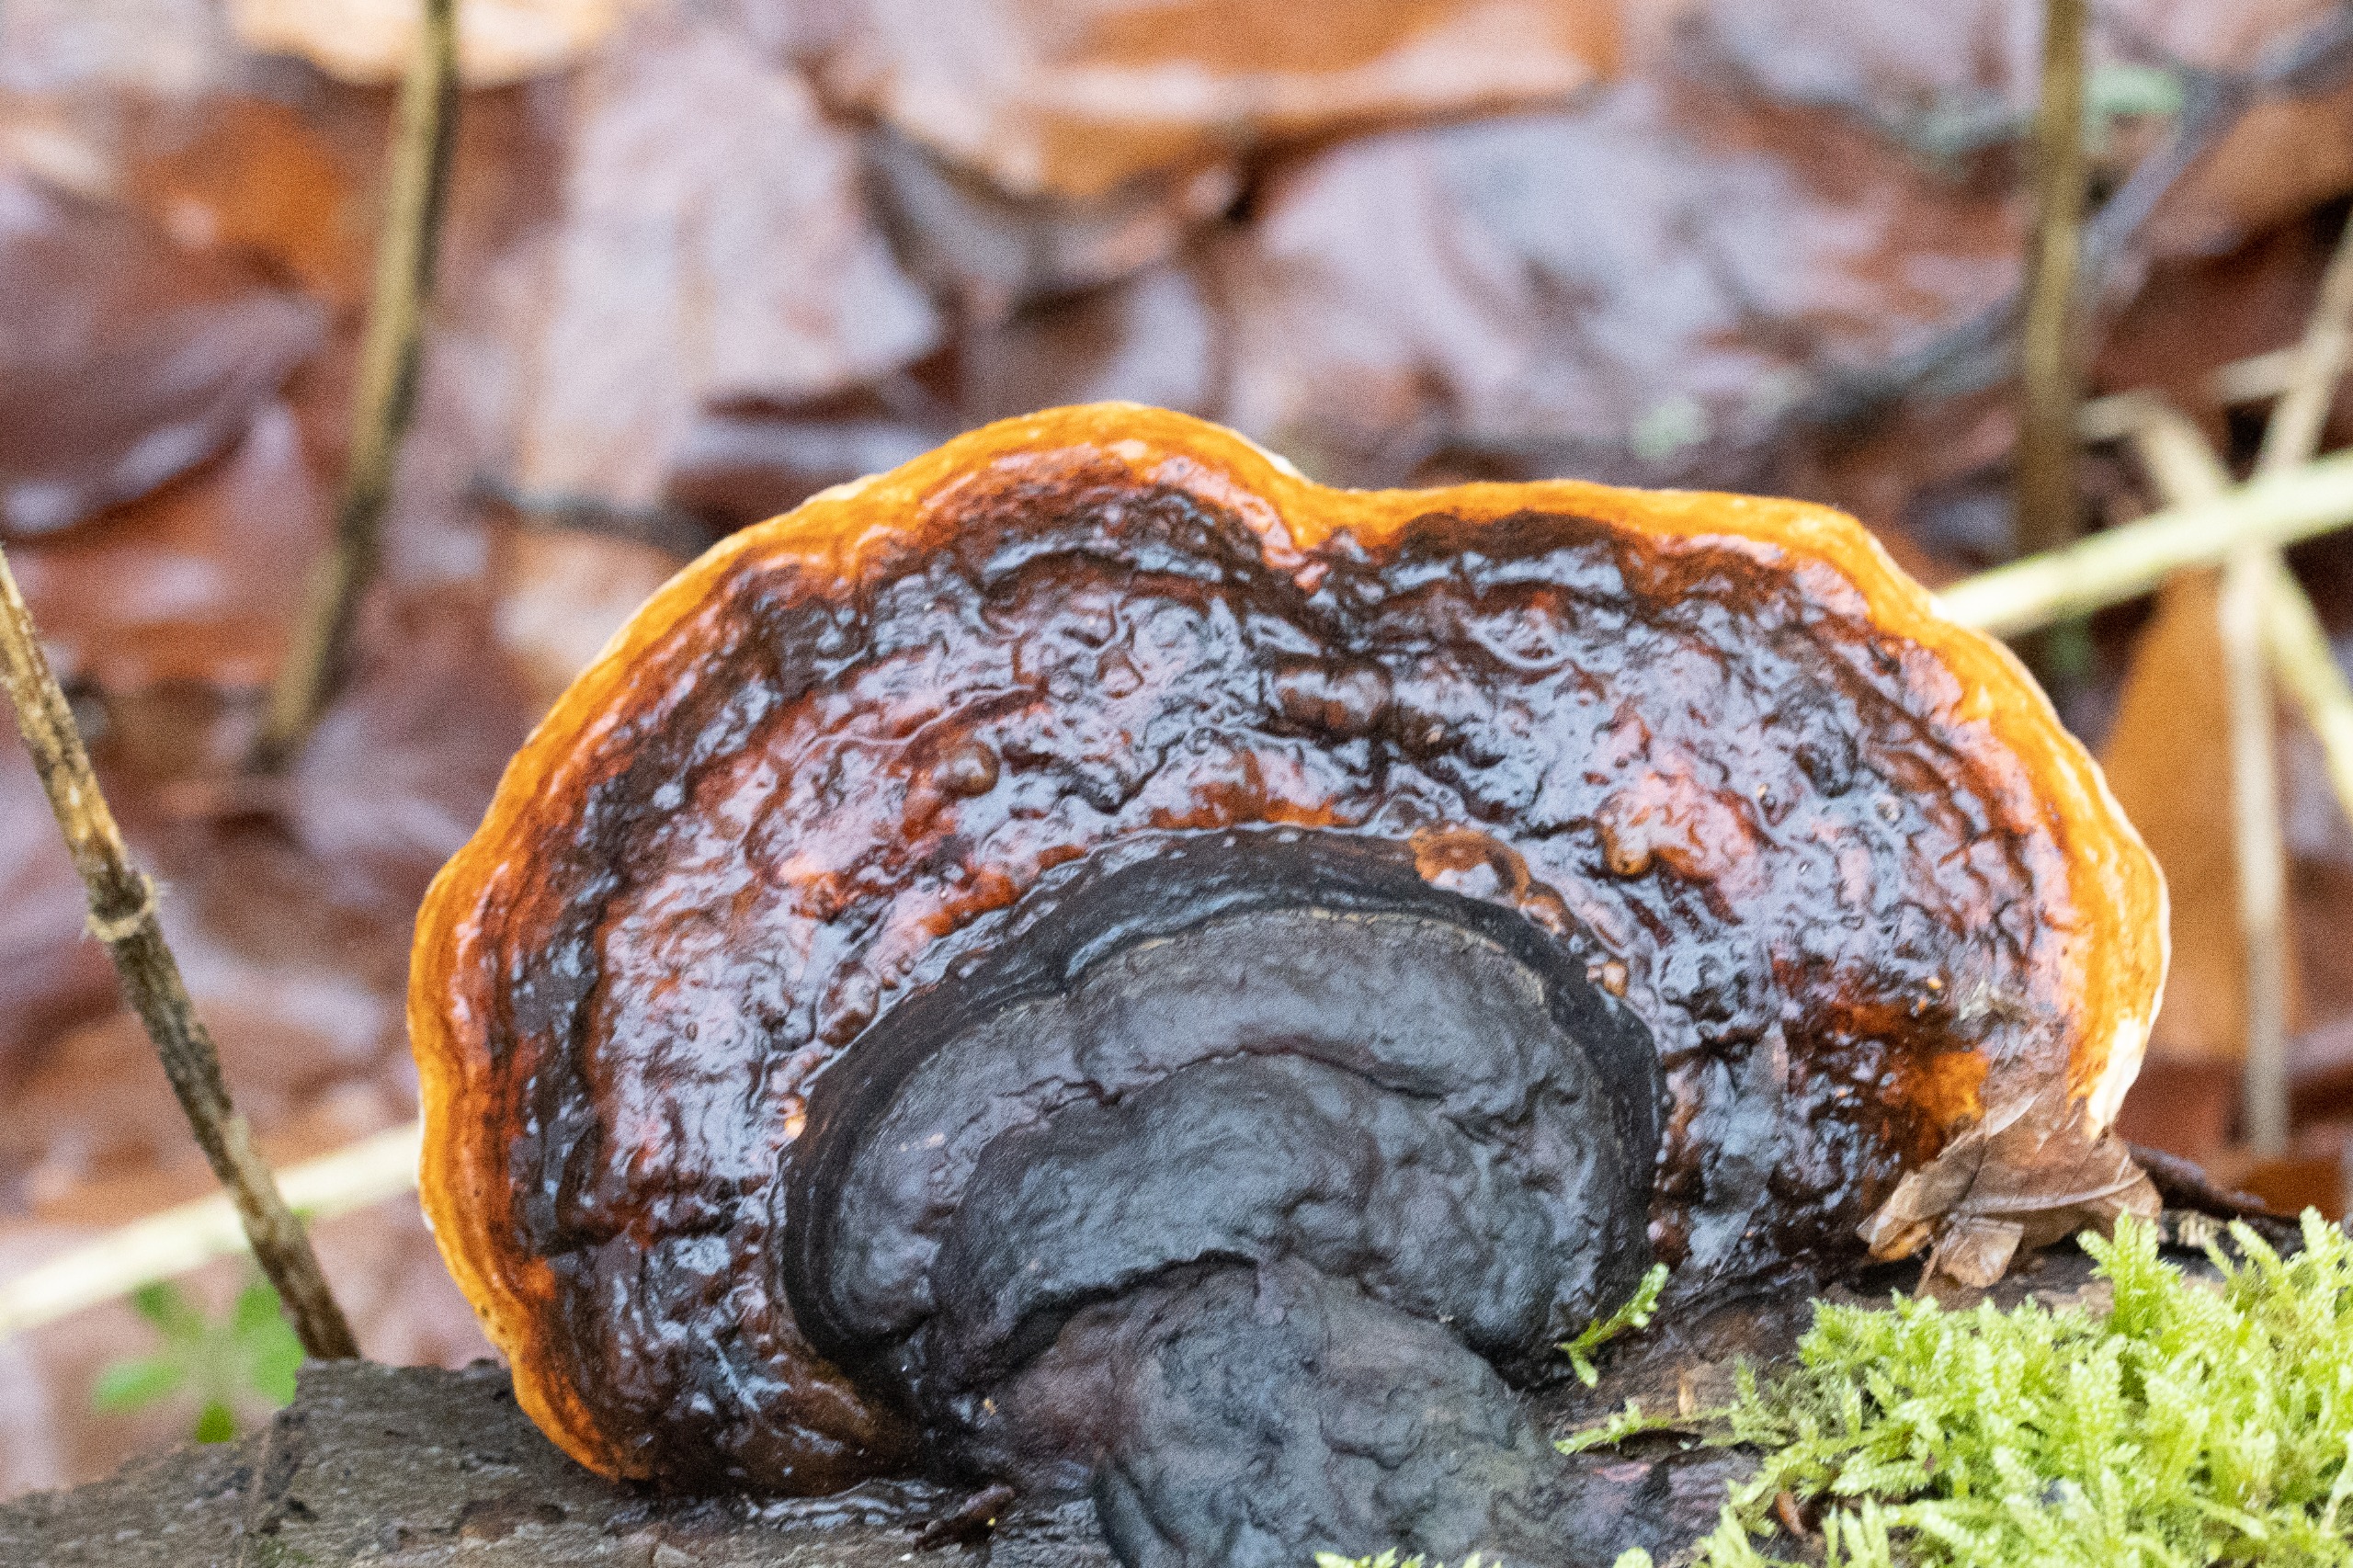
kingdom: Fungi
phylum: Basidiomycota
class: Agaricomycetes
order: Polyporales
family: Fomitopsidaceae
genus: Fomitopsis
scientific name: Fomitopsis pinicola
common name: Randbæltet hovporesvamp
